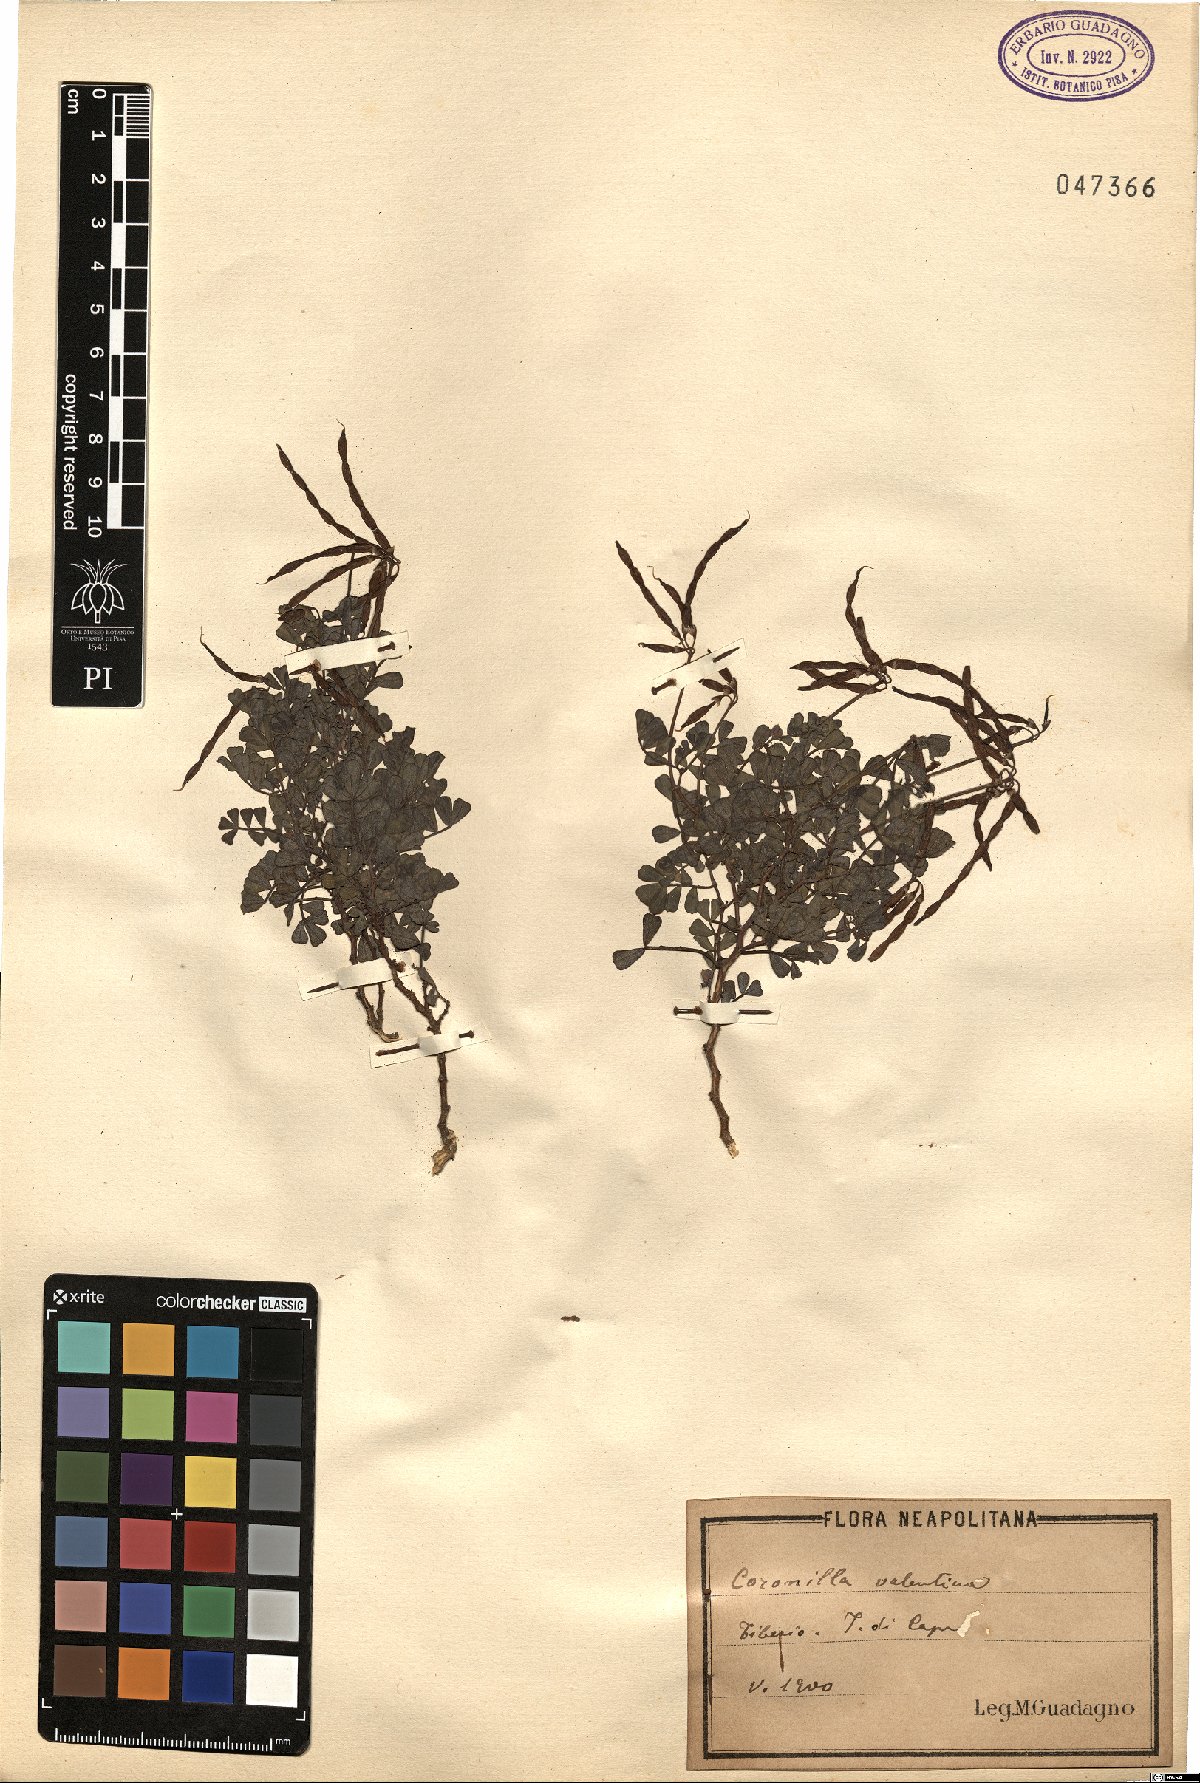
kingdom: Plantae
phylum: Tracheophyta
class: Magnoliopsida
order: Fabales
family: Fabaceae
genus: Coronilla
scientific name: Coronilla valentina
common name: Shrubby scorpion-vetch
